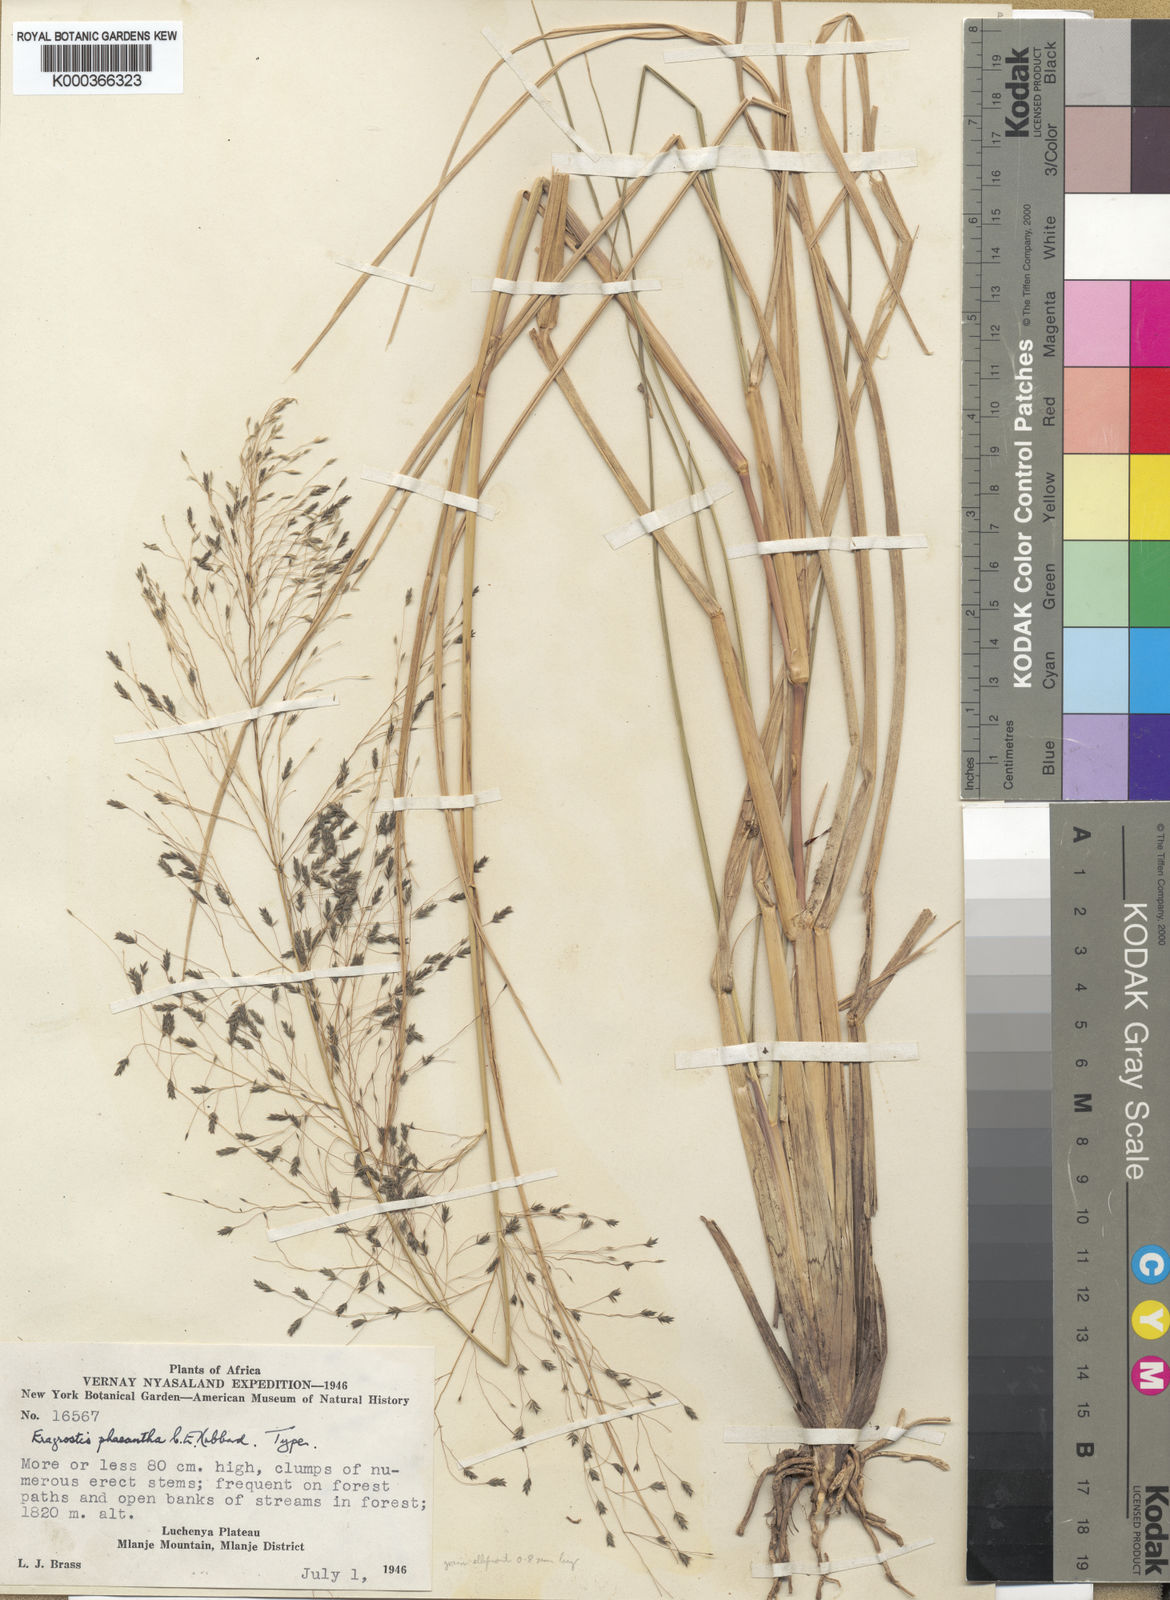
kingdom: Plantae
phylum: Tracheophyta
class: Liliopsida
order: Poales
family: Poaceae
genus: Eragrostis
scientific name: Eragrostis homblei
